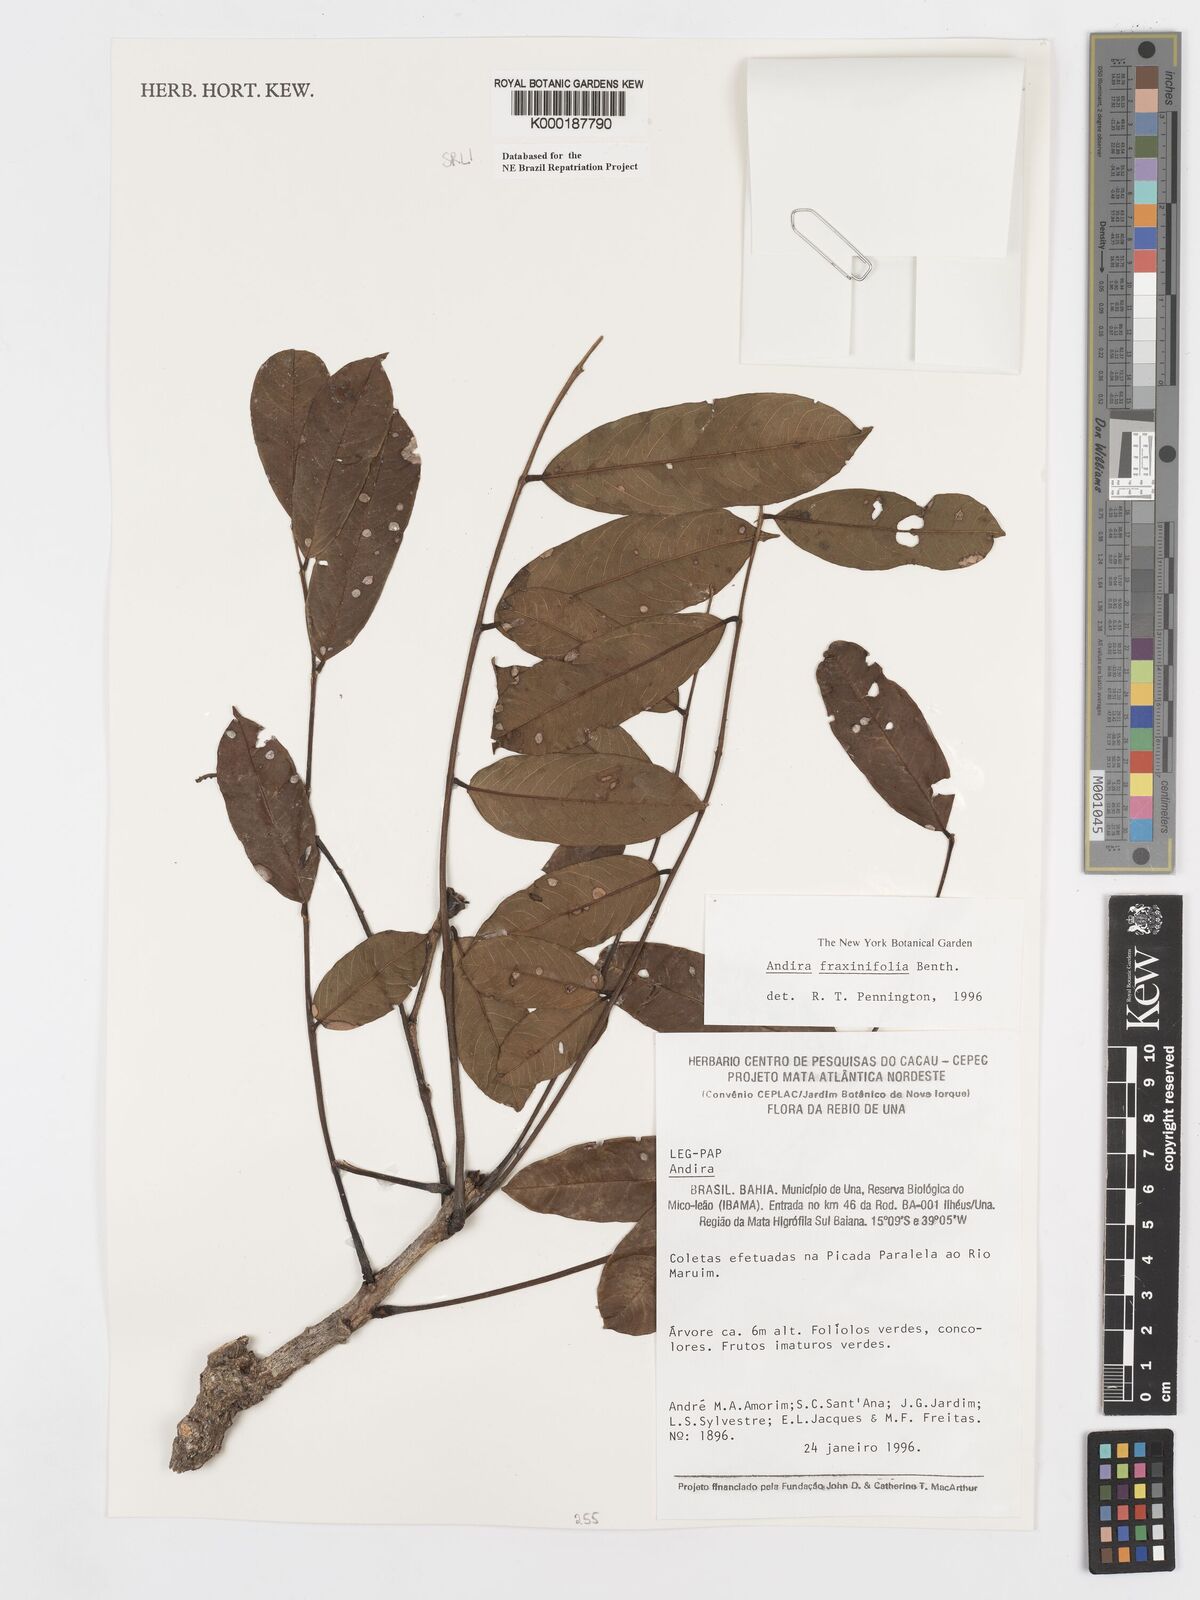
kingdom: Plantae
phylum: Tracheophyta
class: Magnoliopsida
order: Fabales
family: Fabaceae
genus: Andira
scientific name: Andira fraxinifolia
